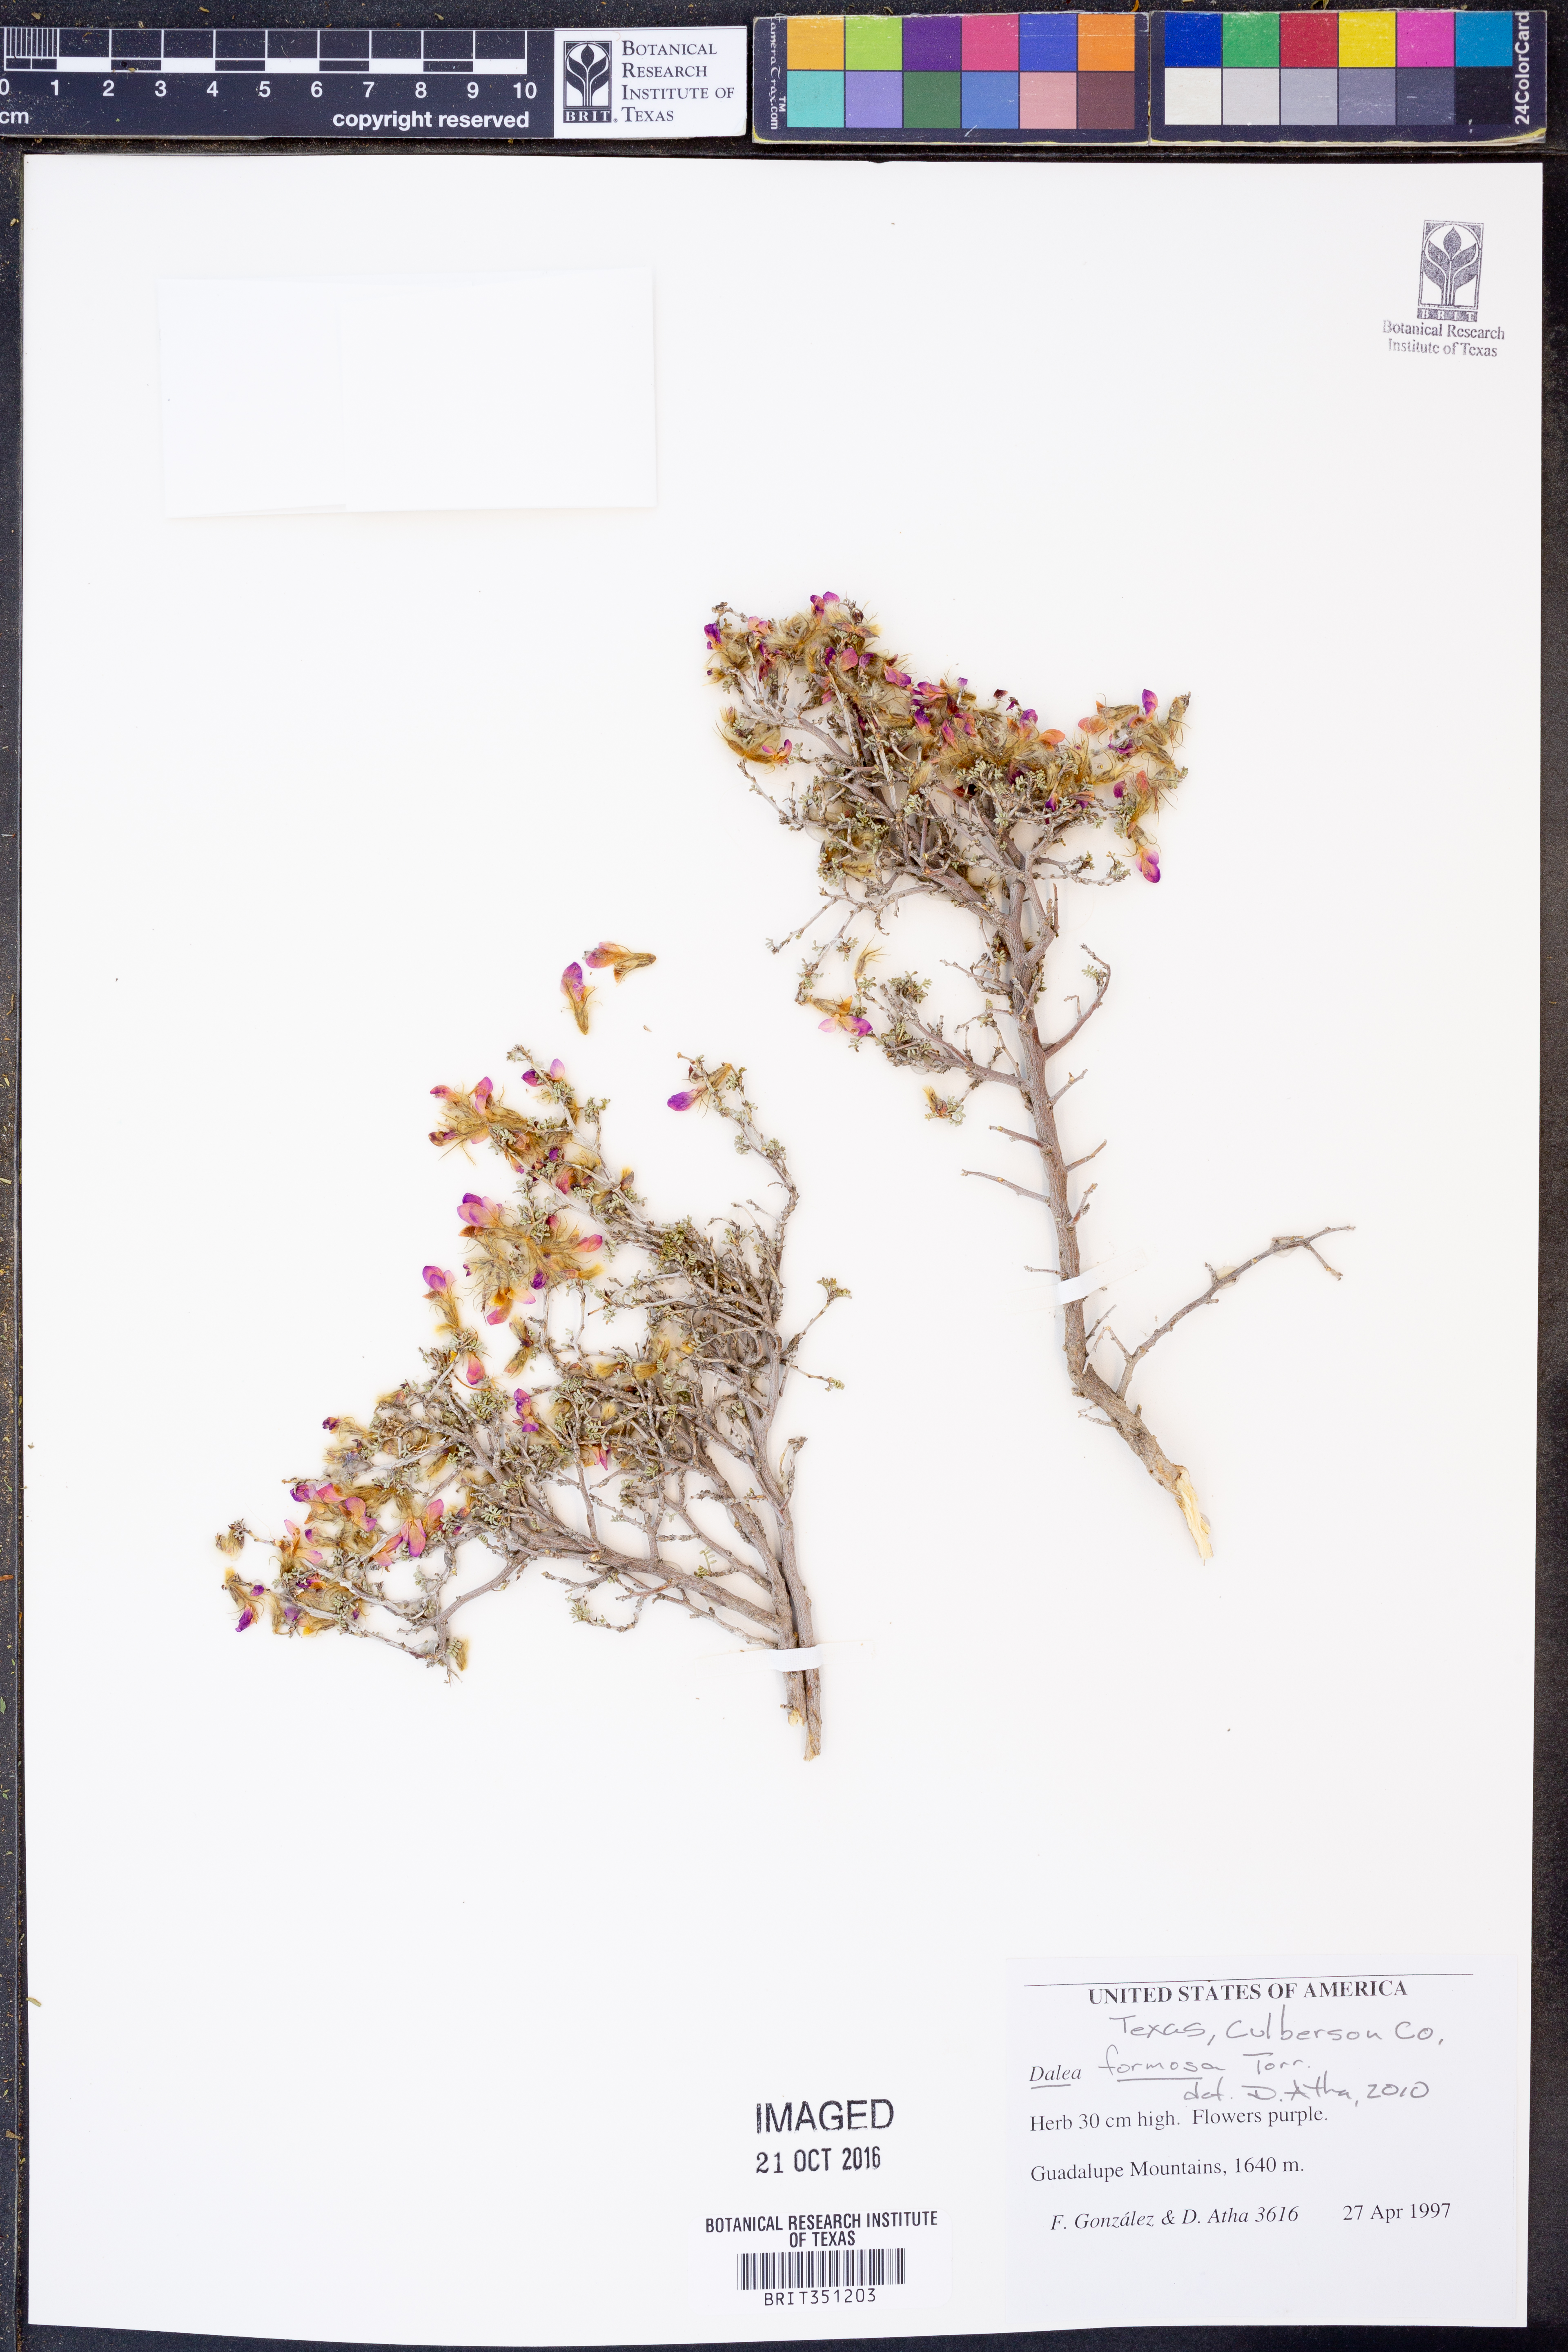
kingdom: Plantae
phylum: Tracheophyta
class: Magnoliopsida
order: Fabales
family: Fabaceae
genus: Dalea
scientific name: Dalea formosa
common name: Feather-plume dalea
